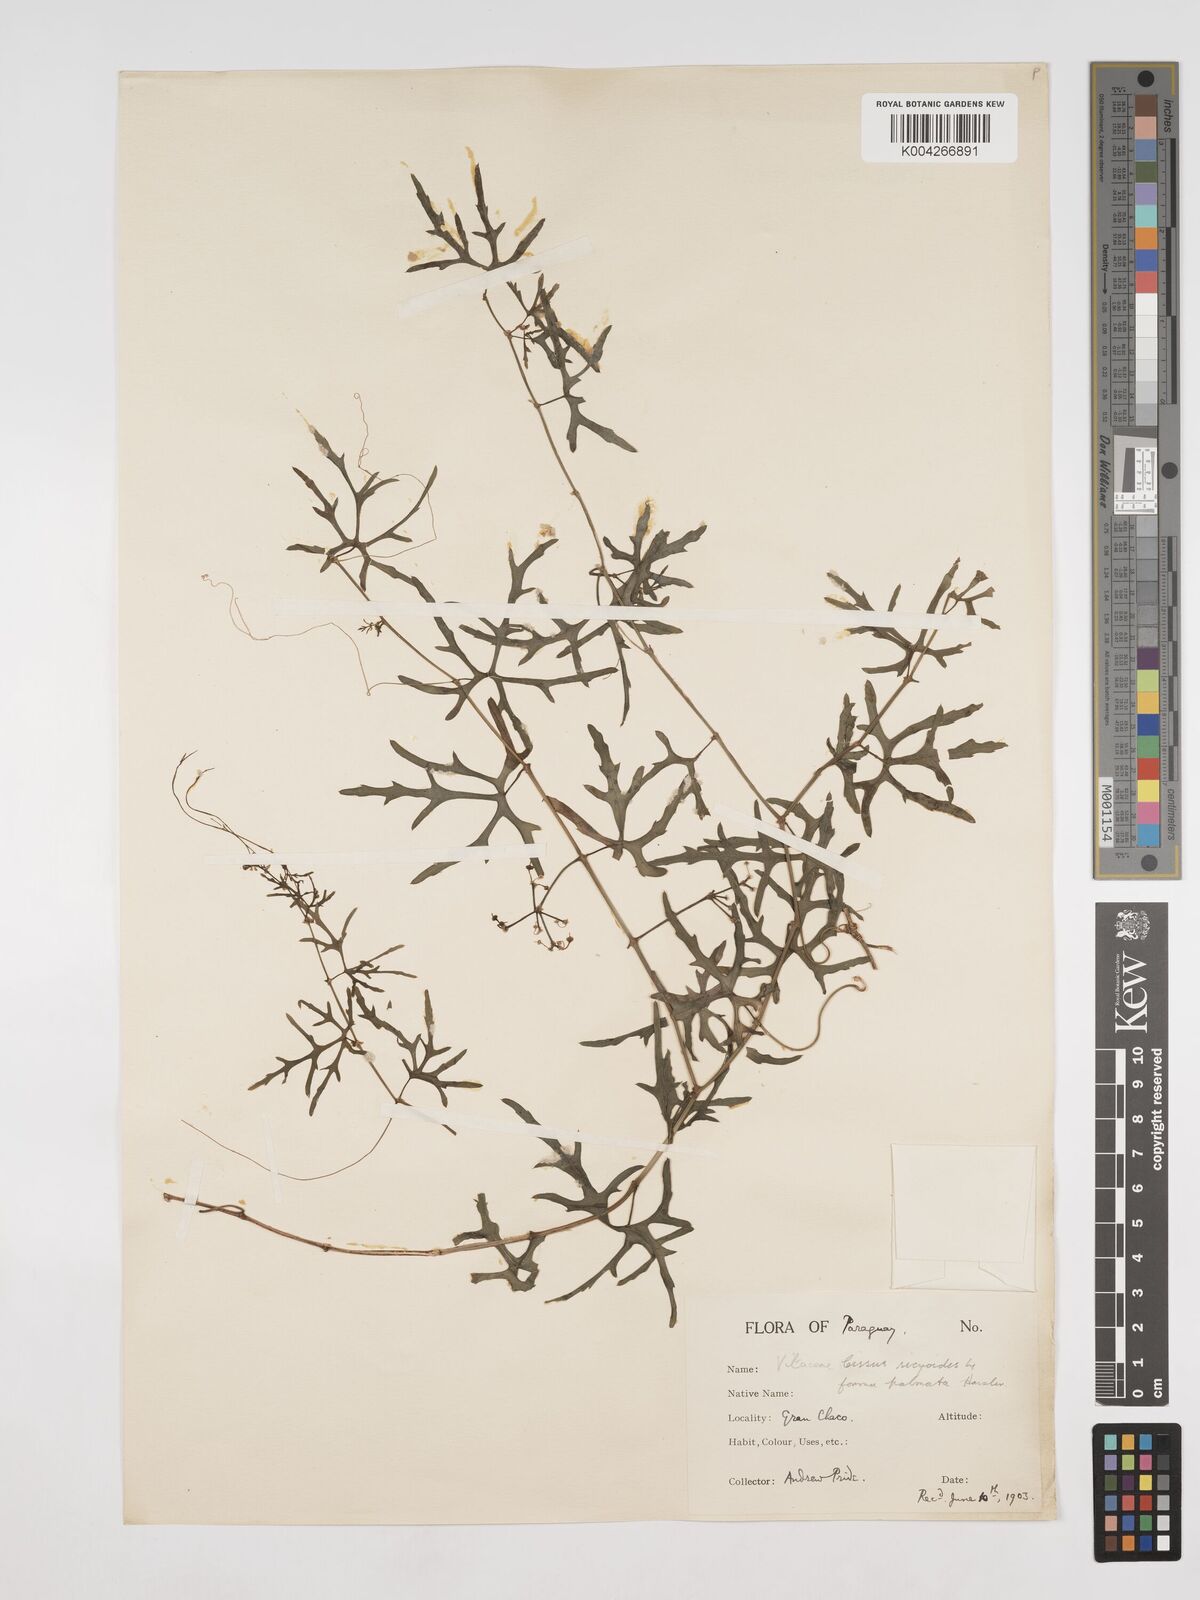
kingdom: Plantae
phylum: Tracheophyta
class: Magnoliopsida
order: Vitales
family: Vitaceae
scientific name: Vitaceae
